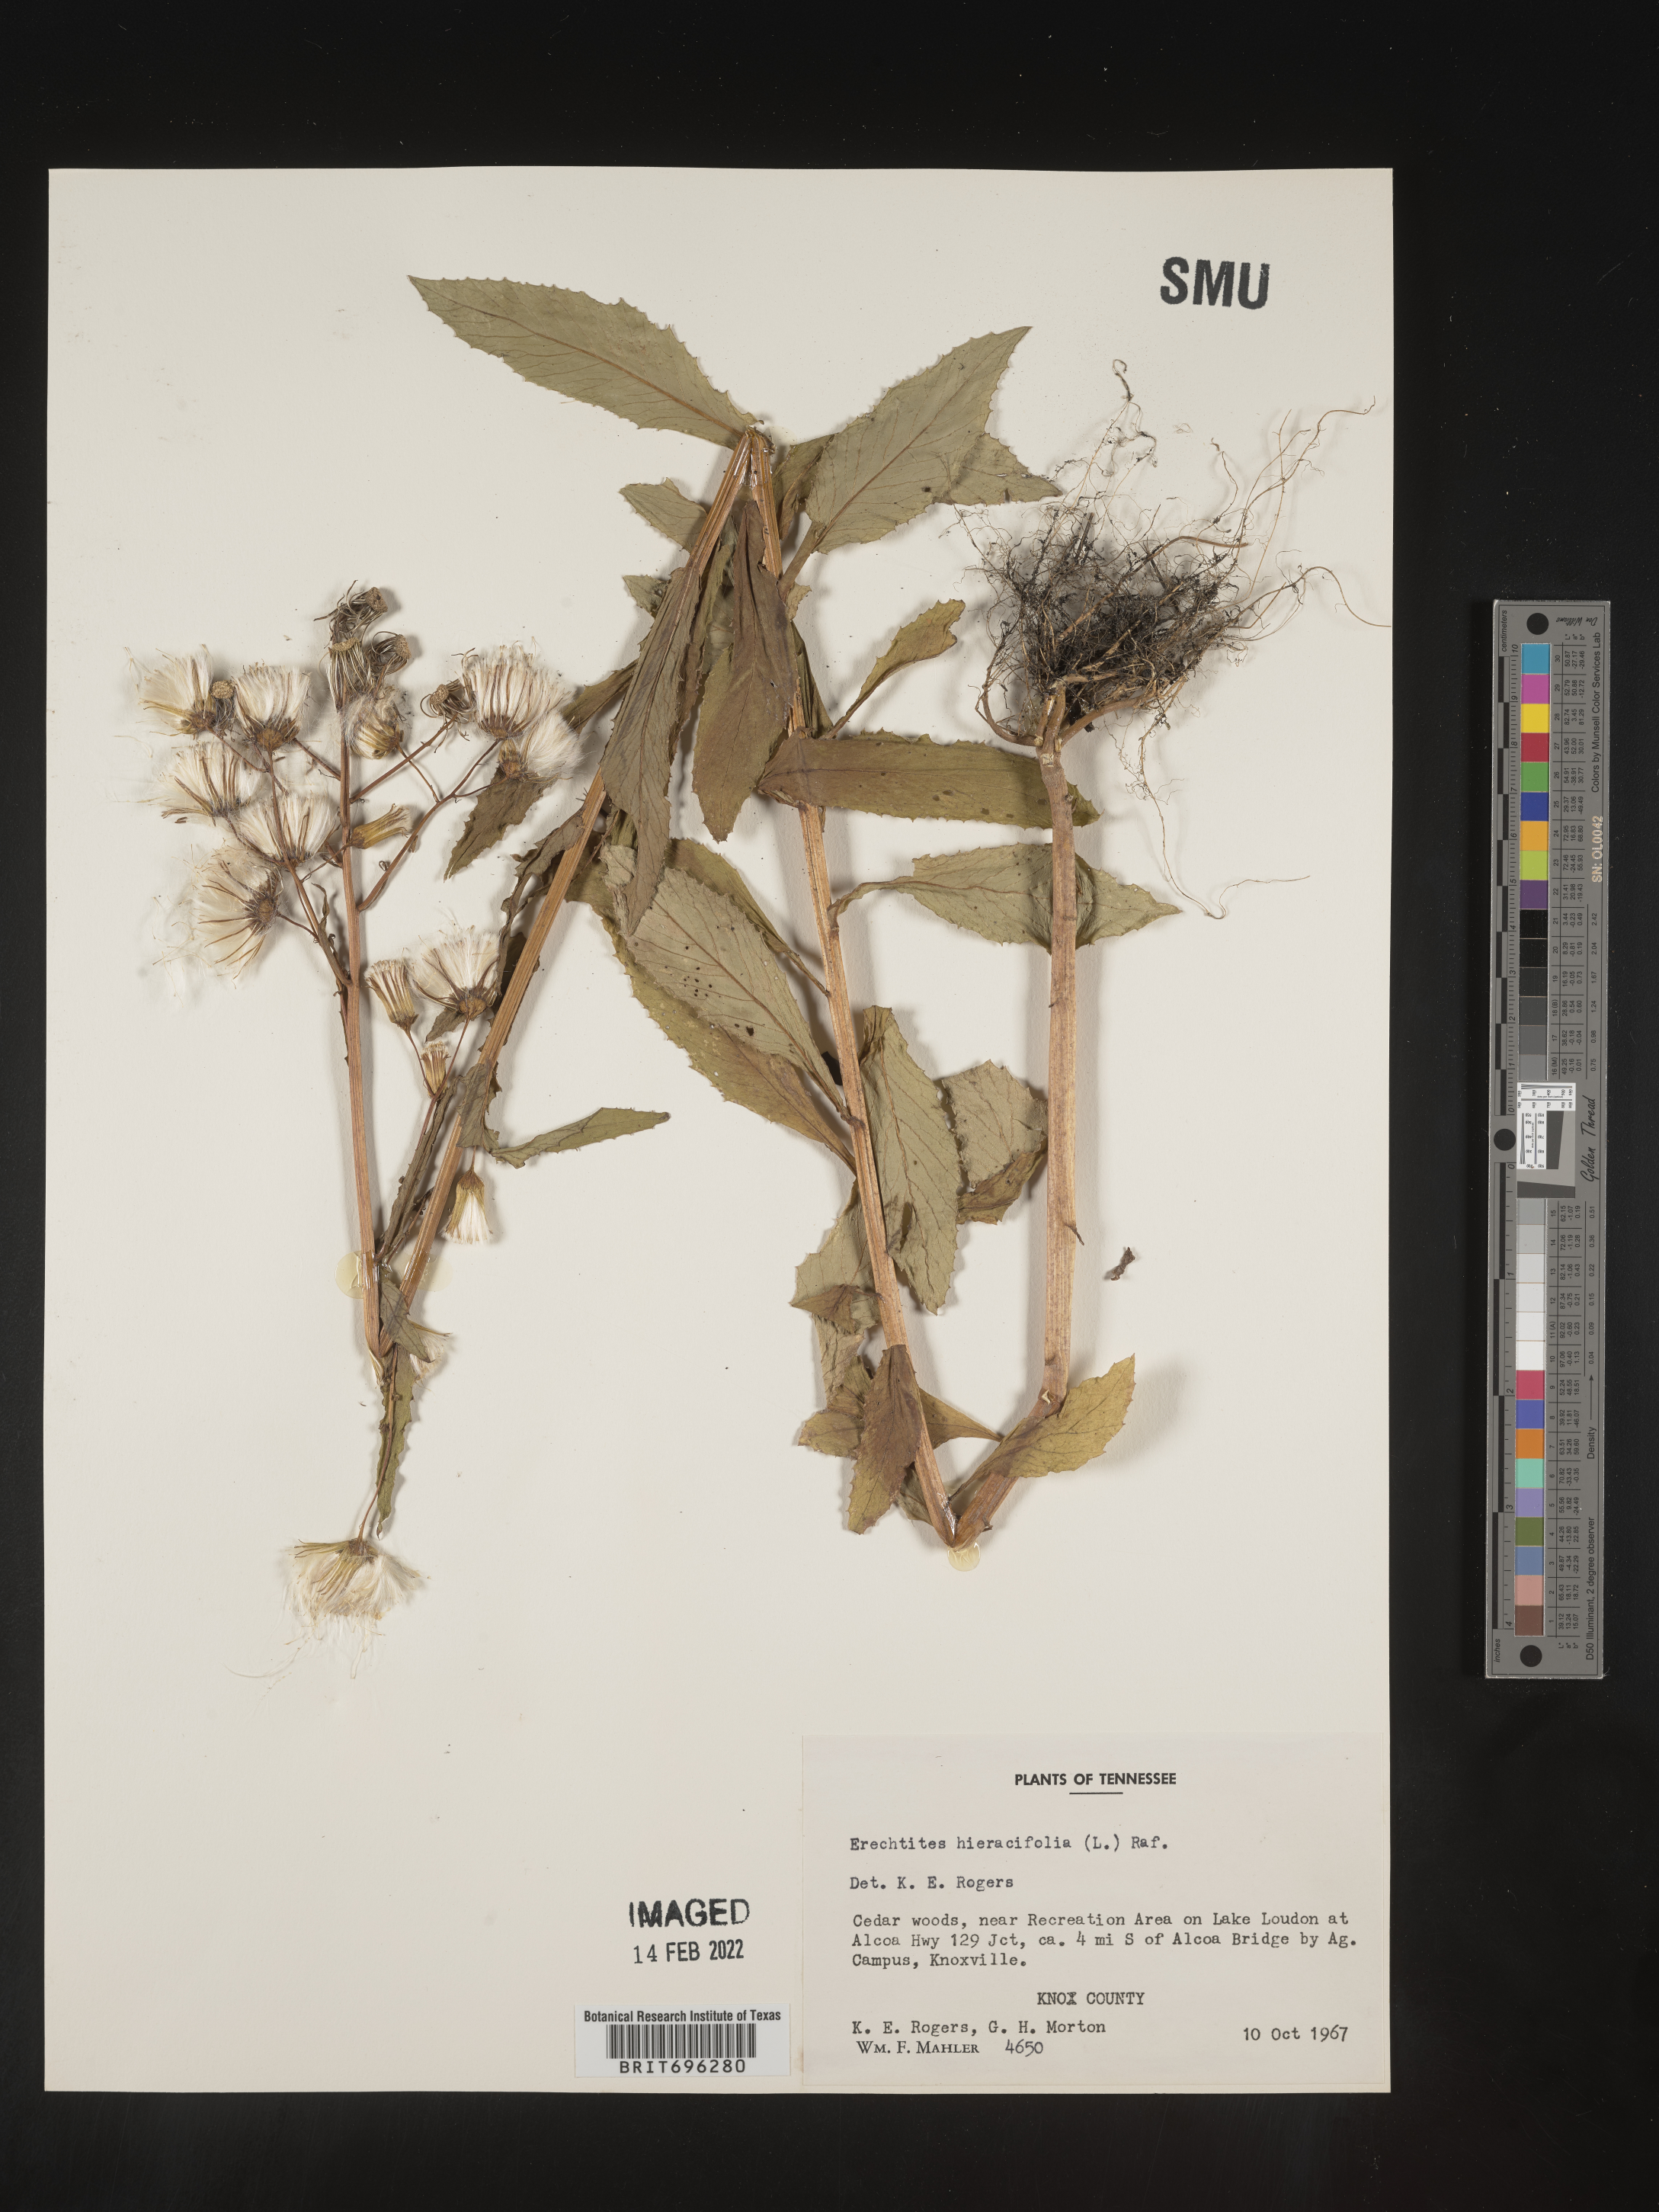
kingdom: Plantae
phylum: Tracheophyta
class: Magnoliopsida
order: Asterales
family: Asteraceae
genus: Erechtites
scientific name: Erechtites hieraciifolius
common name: American burnweed
